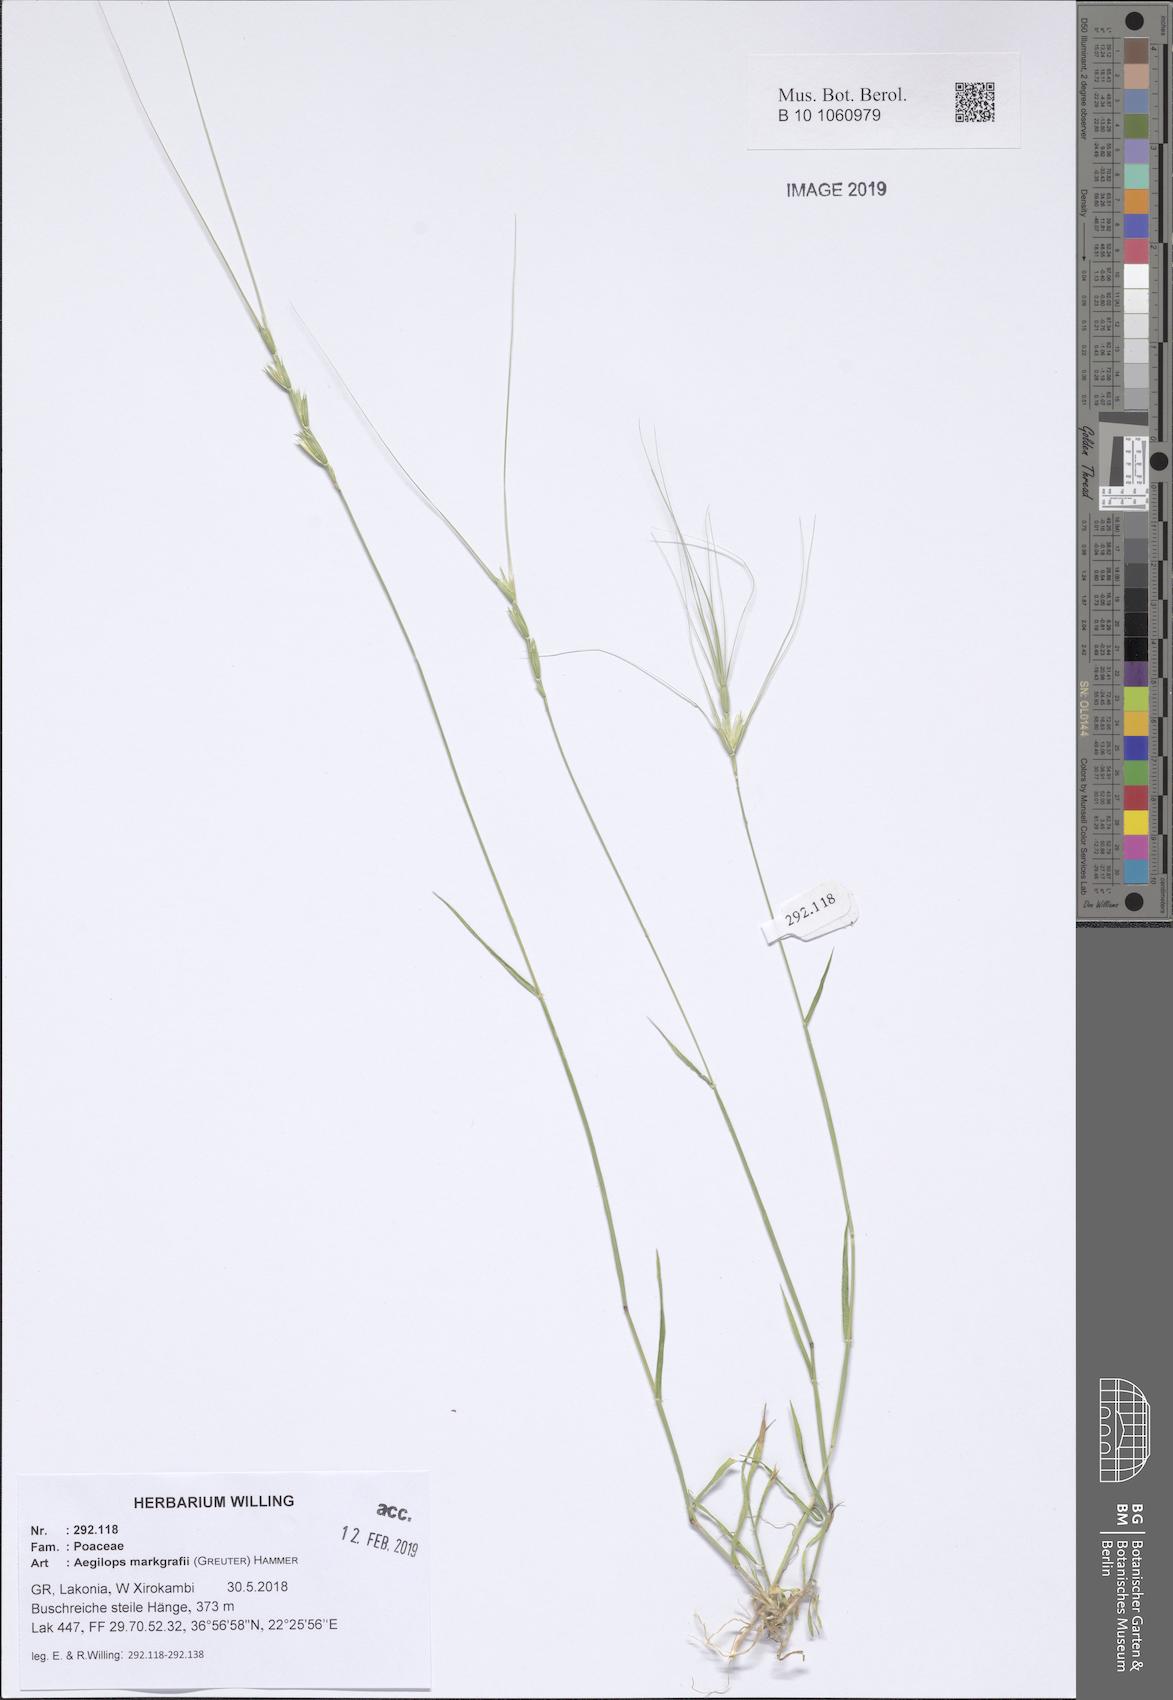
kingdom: Plantae
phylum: Tracheophyta
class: Liliopsida
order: Poales
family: Poaceae
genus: Aegilops
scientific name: Aegilops caudata
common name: Cretan hard-grass
